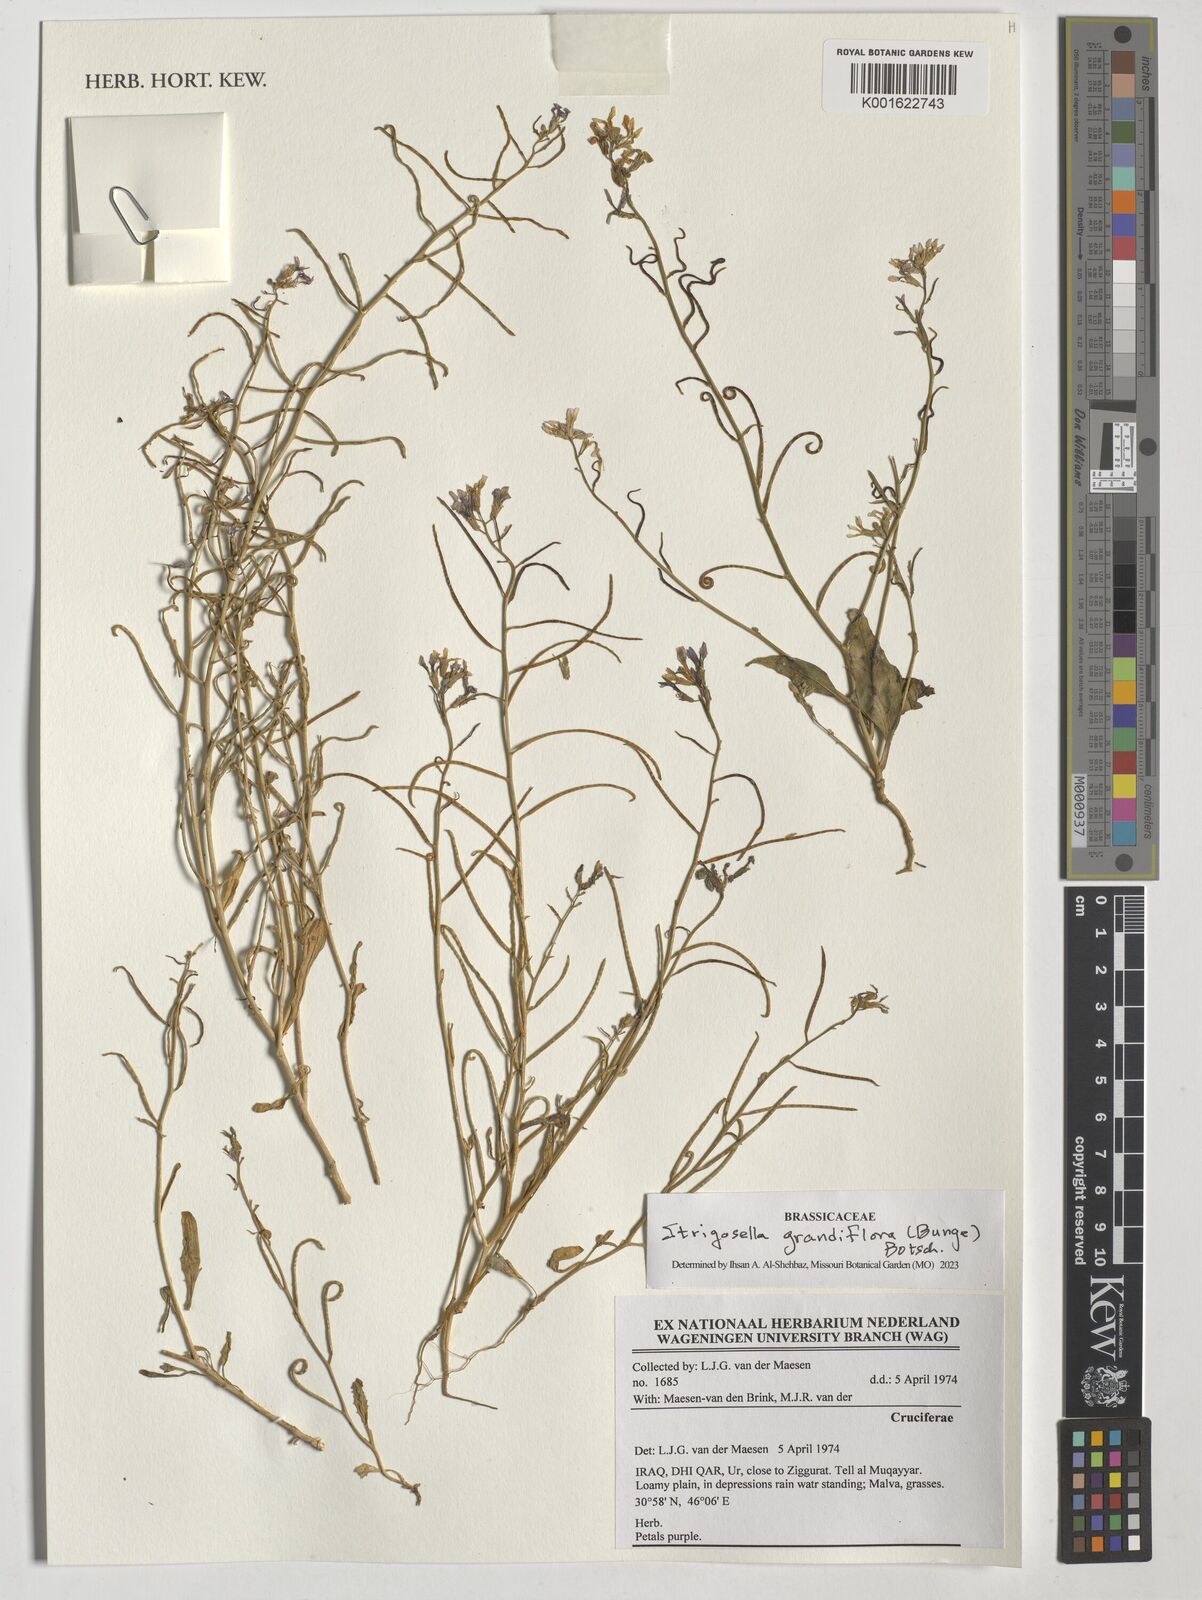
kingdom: Plantae
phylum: Tracheophyta
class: Magnoliopsida
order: Brassicales
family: Brassicaceae
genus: Strigosella
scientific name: Strigosella grandiflora
